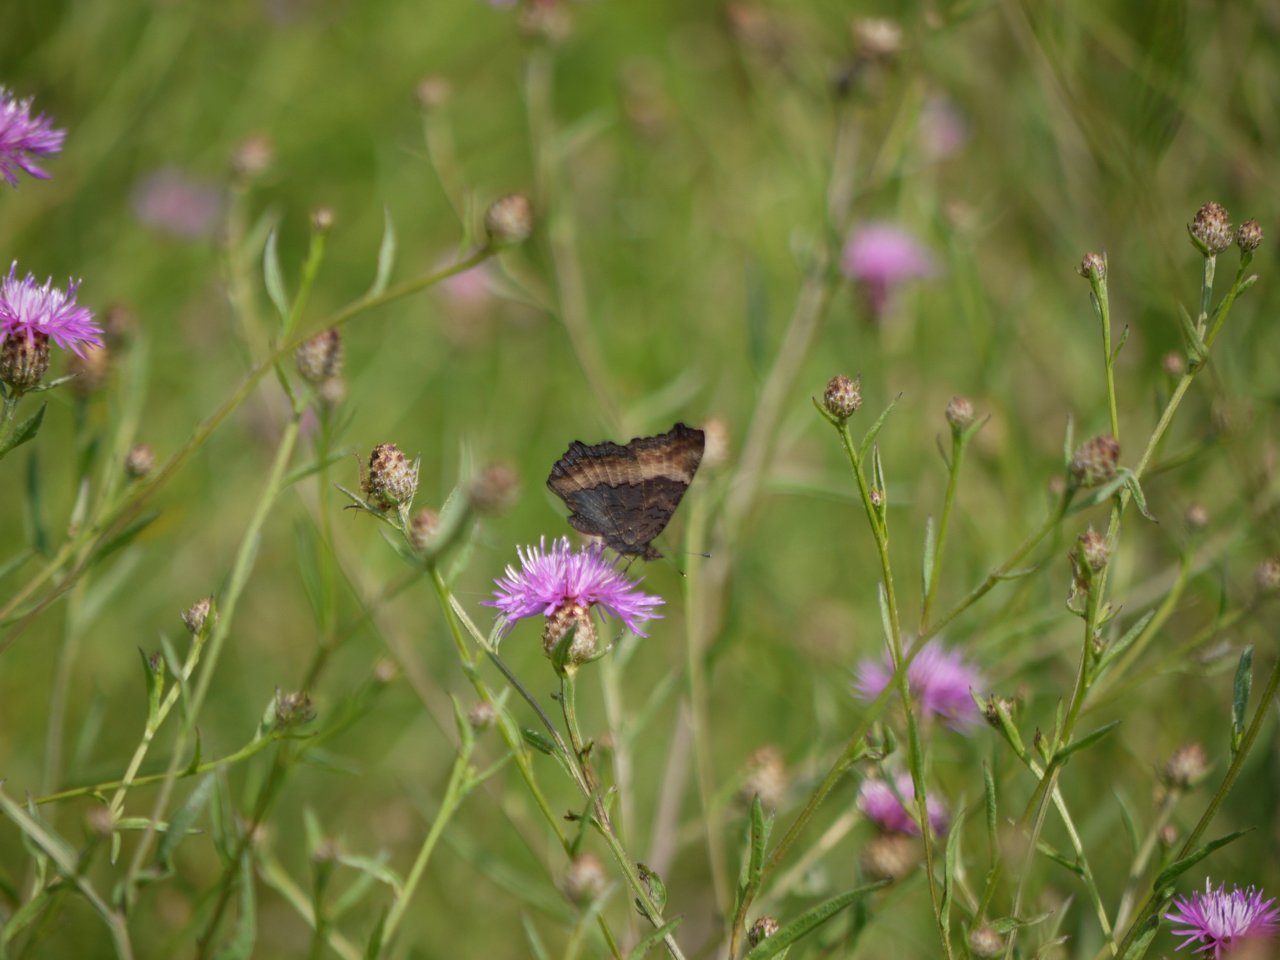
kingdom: Animalia
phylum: Arthropoda
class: Insecta
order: Lepidoptera
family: Nymphalidae
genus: Aglais
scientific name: Aglais milberti
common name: Milbert's Tortoiseshell
